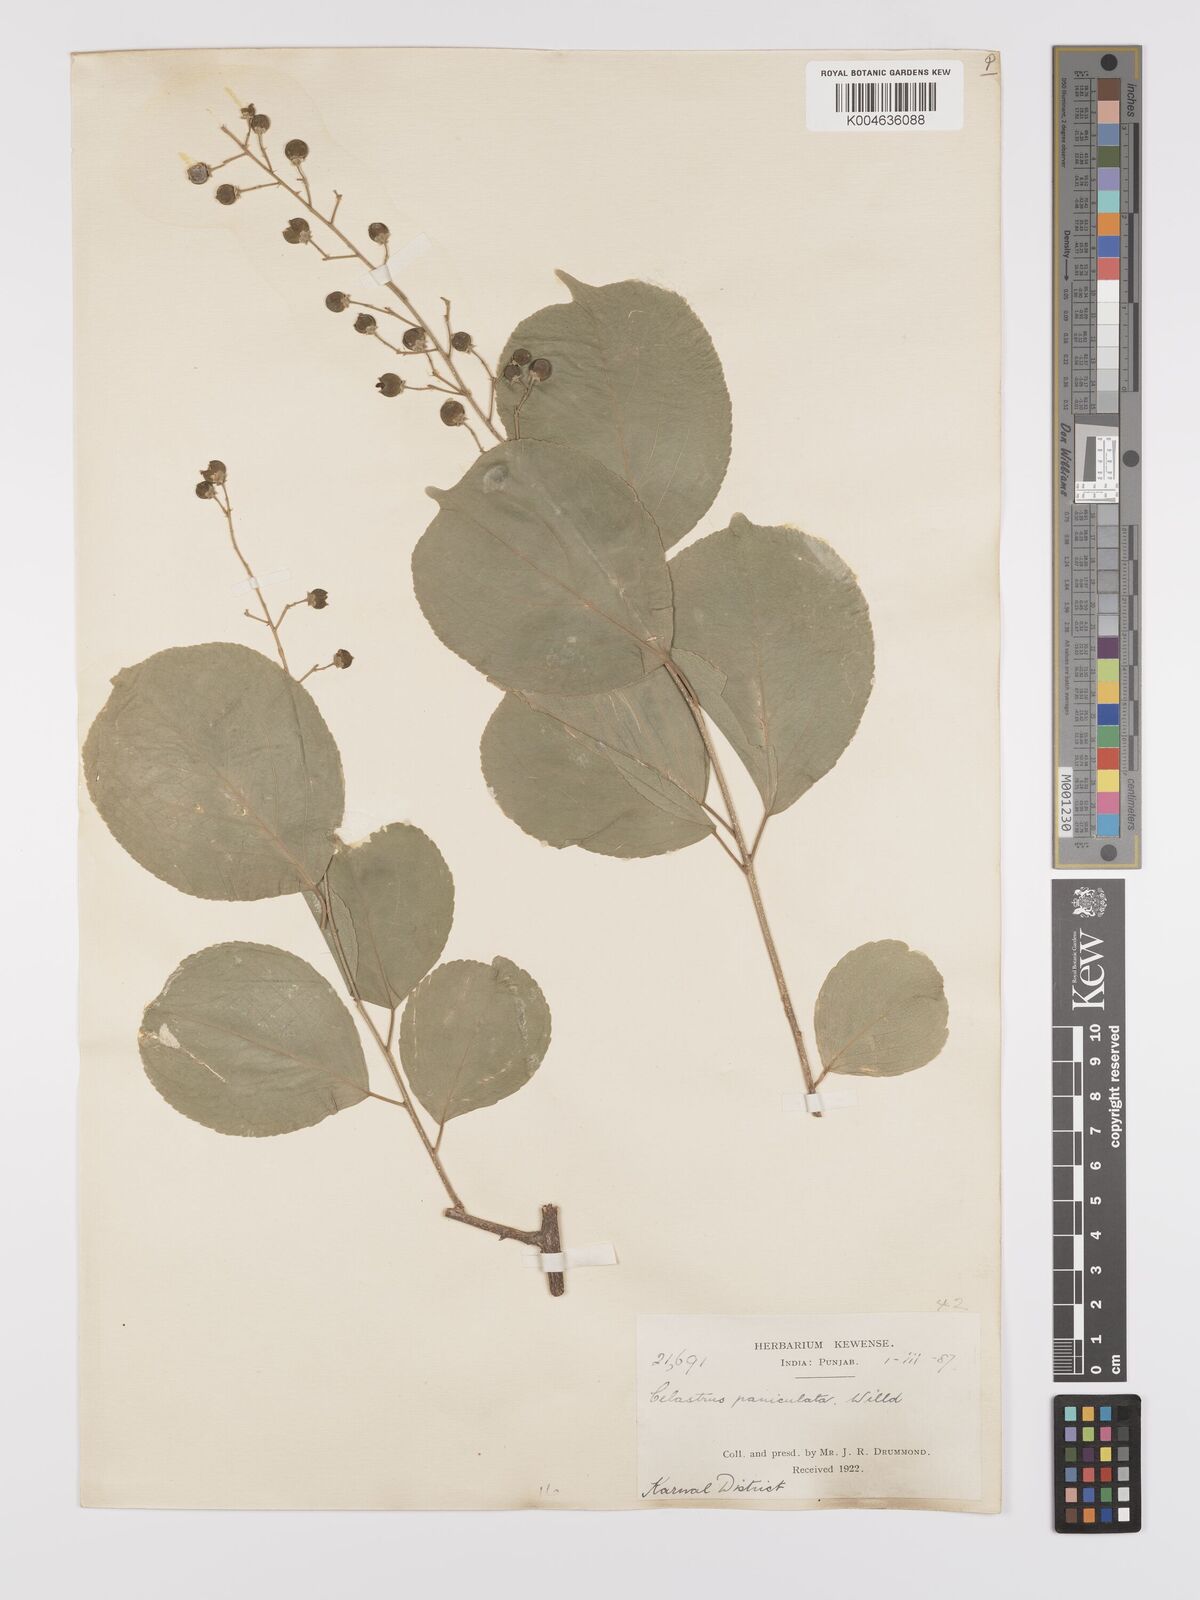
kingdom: Plantae
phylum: Tracheophyta
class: Magnoliopsida
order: Celastrales
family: Celastraceae
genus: Celastrus
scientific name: Celastrus paniculatus
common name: Oriental bittersweet; staff vine
